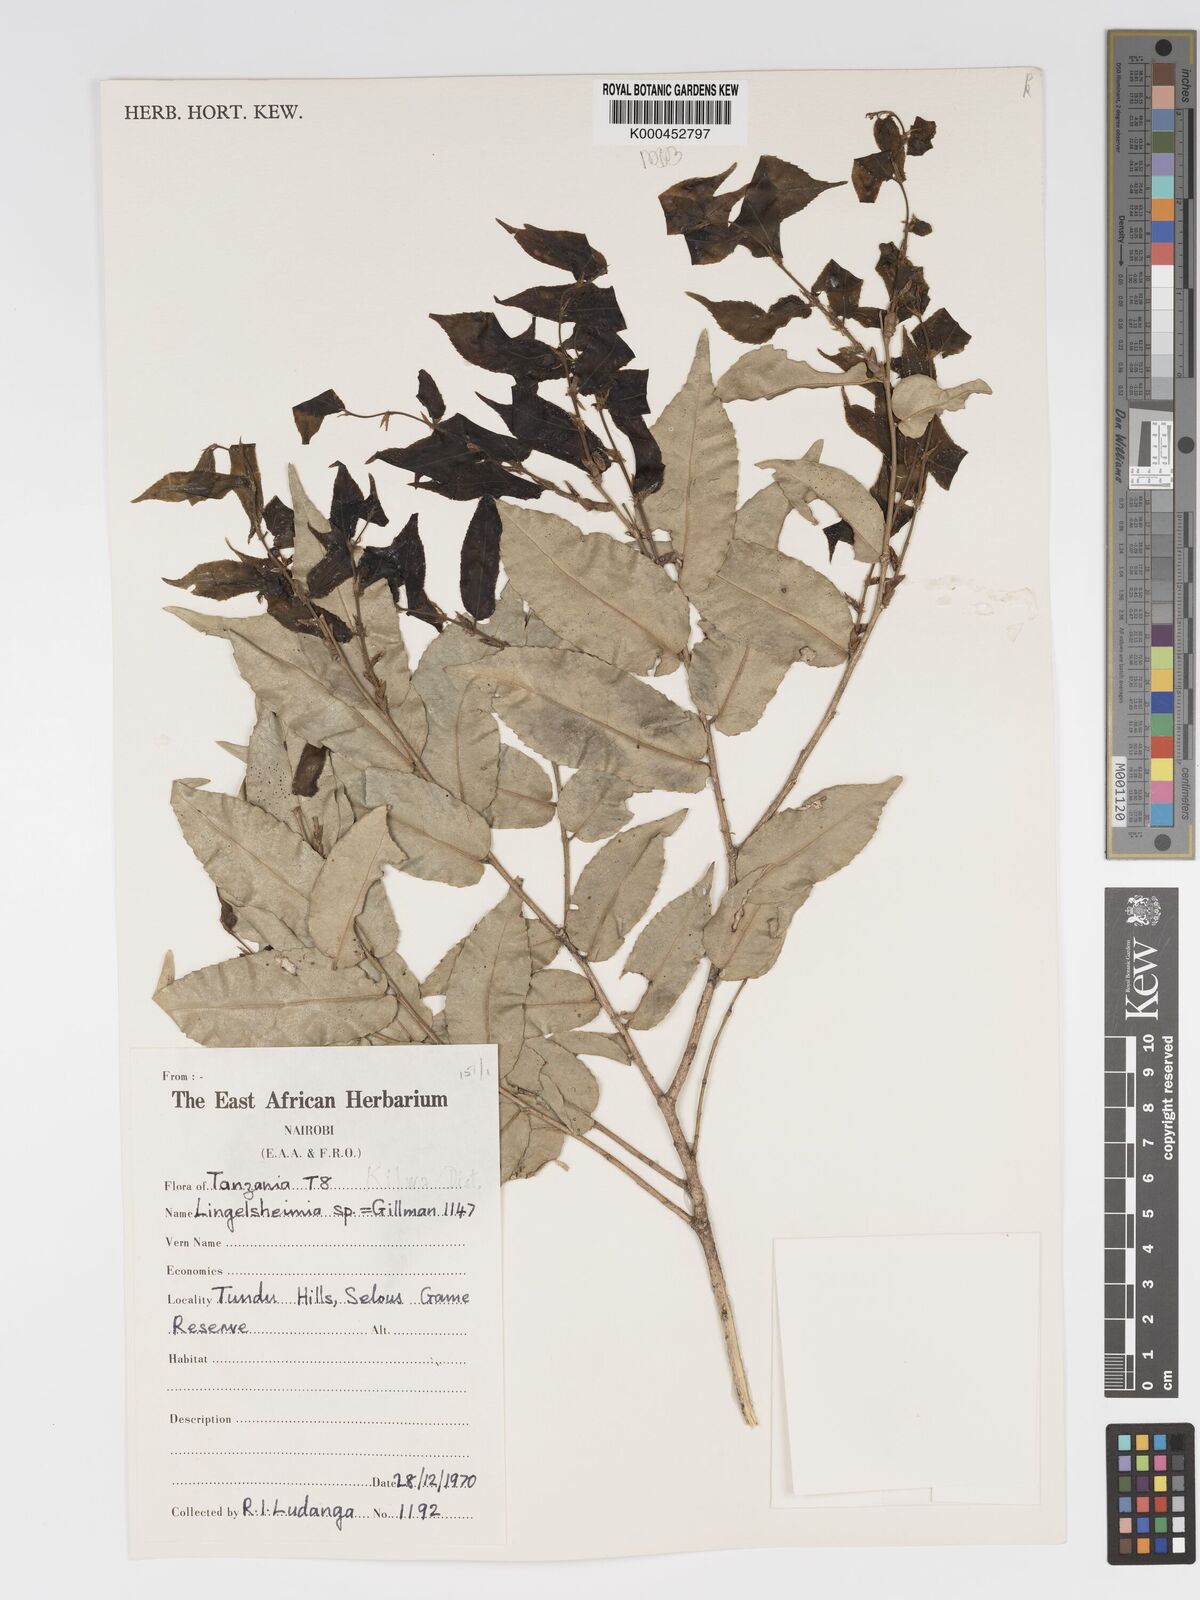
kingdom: Plantae
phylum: Tracheophyta
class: Magnoliopsida
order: Malpighiales
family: Putranjivaceae
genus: Drypetes
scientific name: Drypetes
